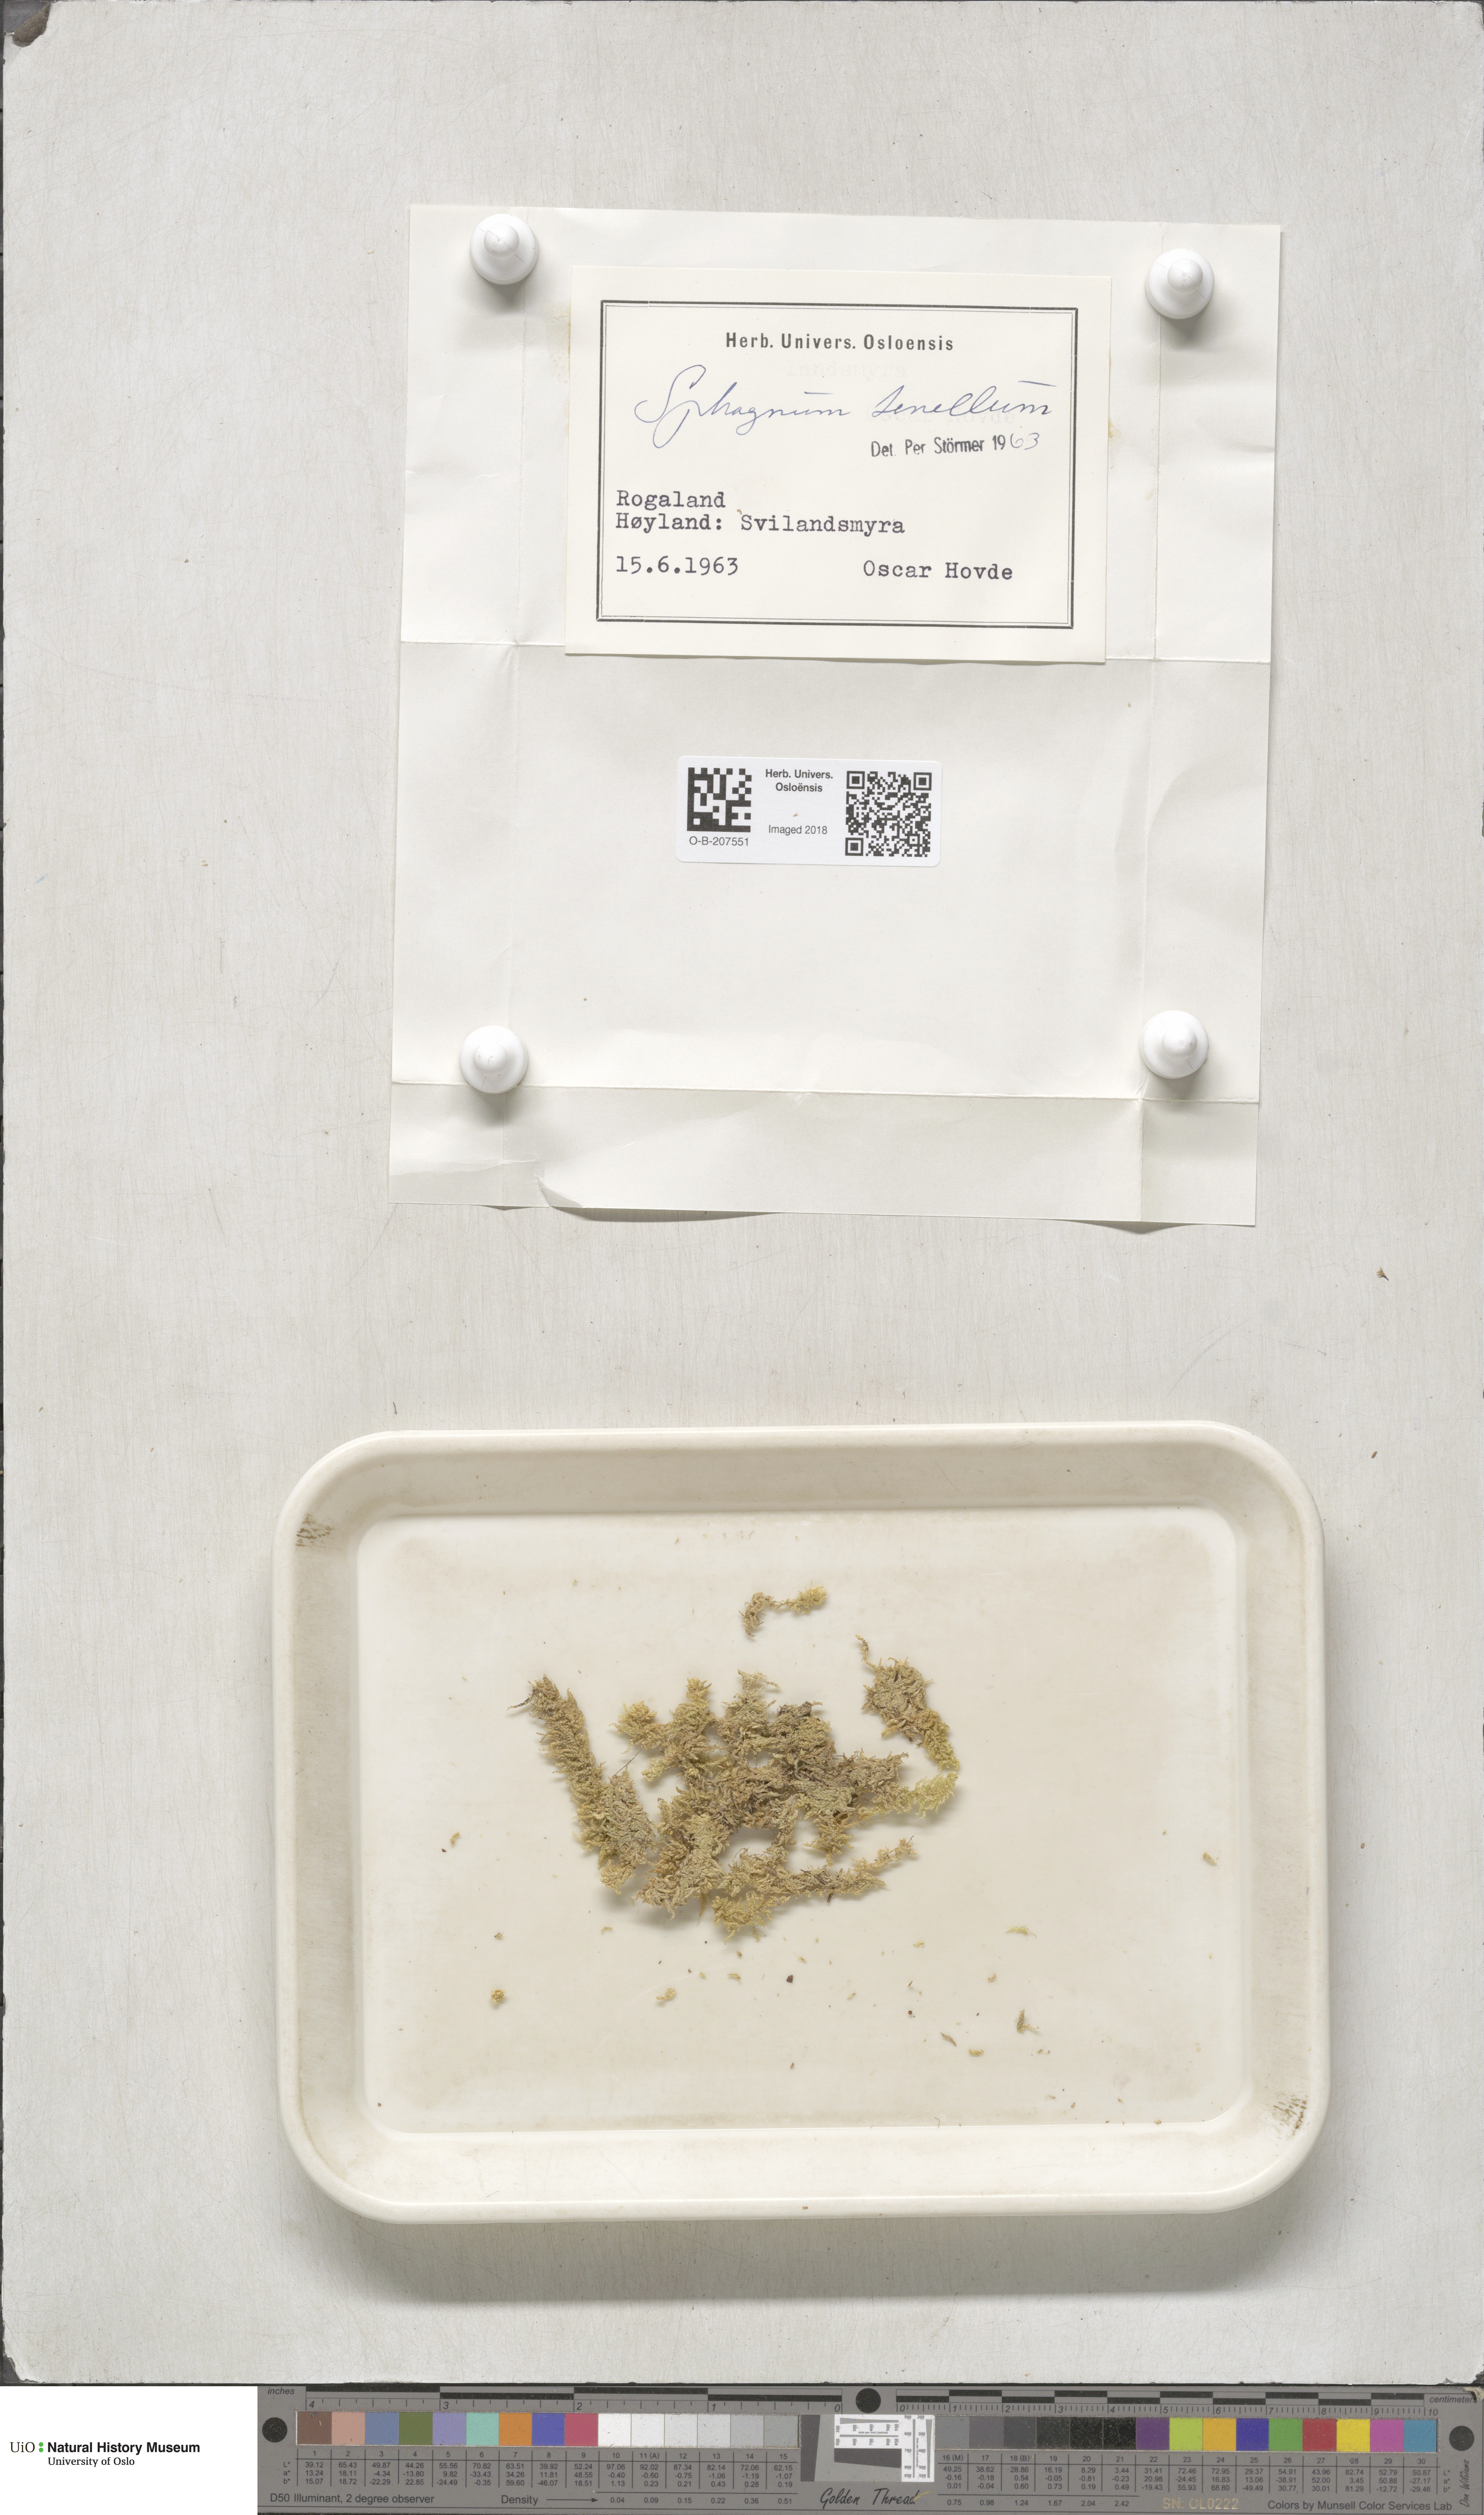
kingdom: Plantae
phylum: Bryophyta
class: Sphagnopsida
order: Sphagnales
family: Sphagnaceae
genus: Sphagnum
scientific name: Sphagnum tenellum
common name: Soft bog-moss
